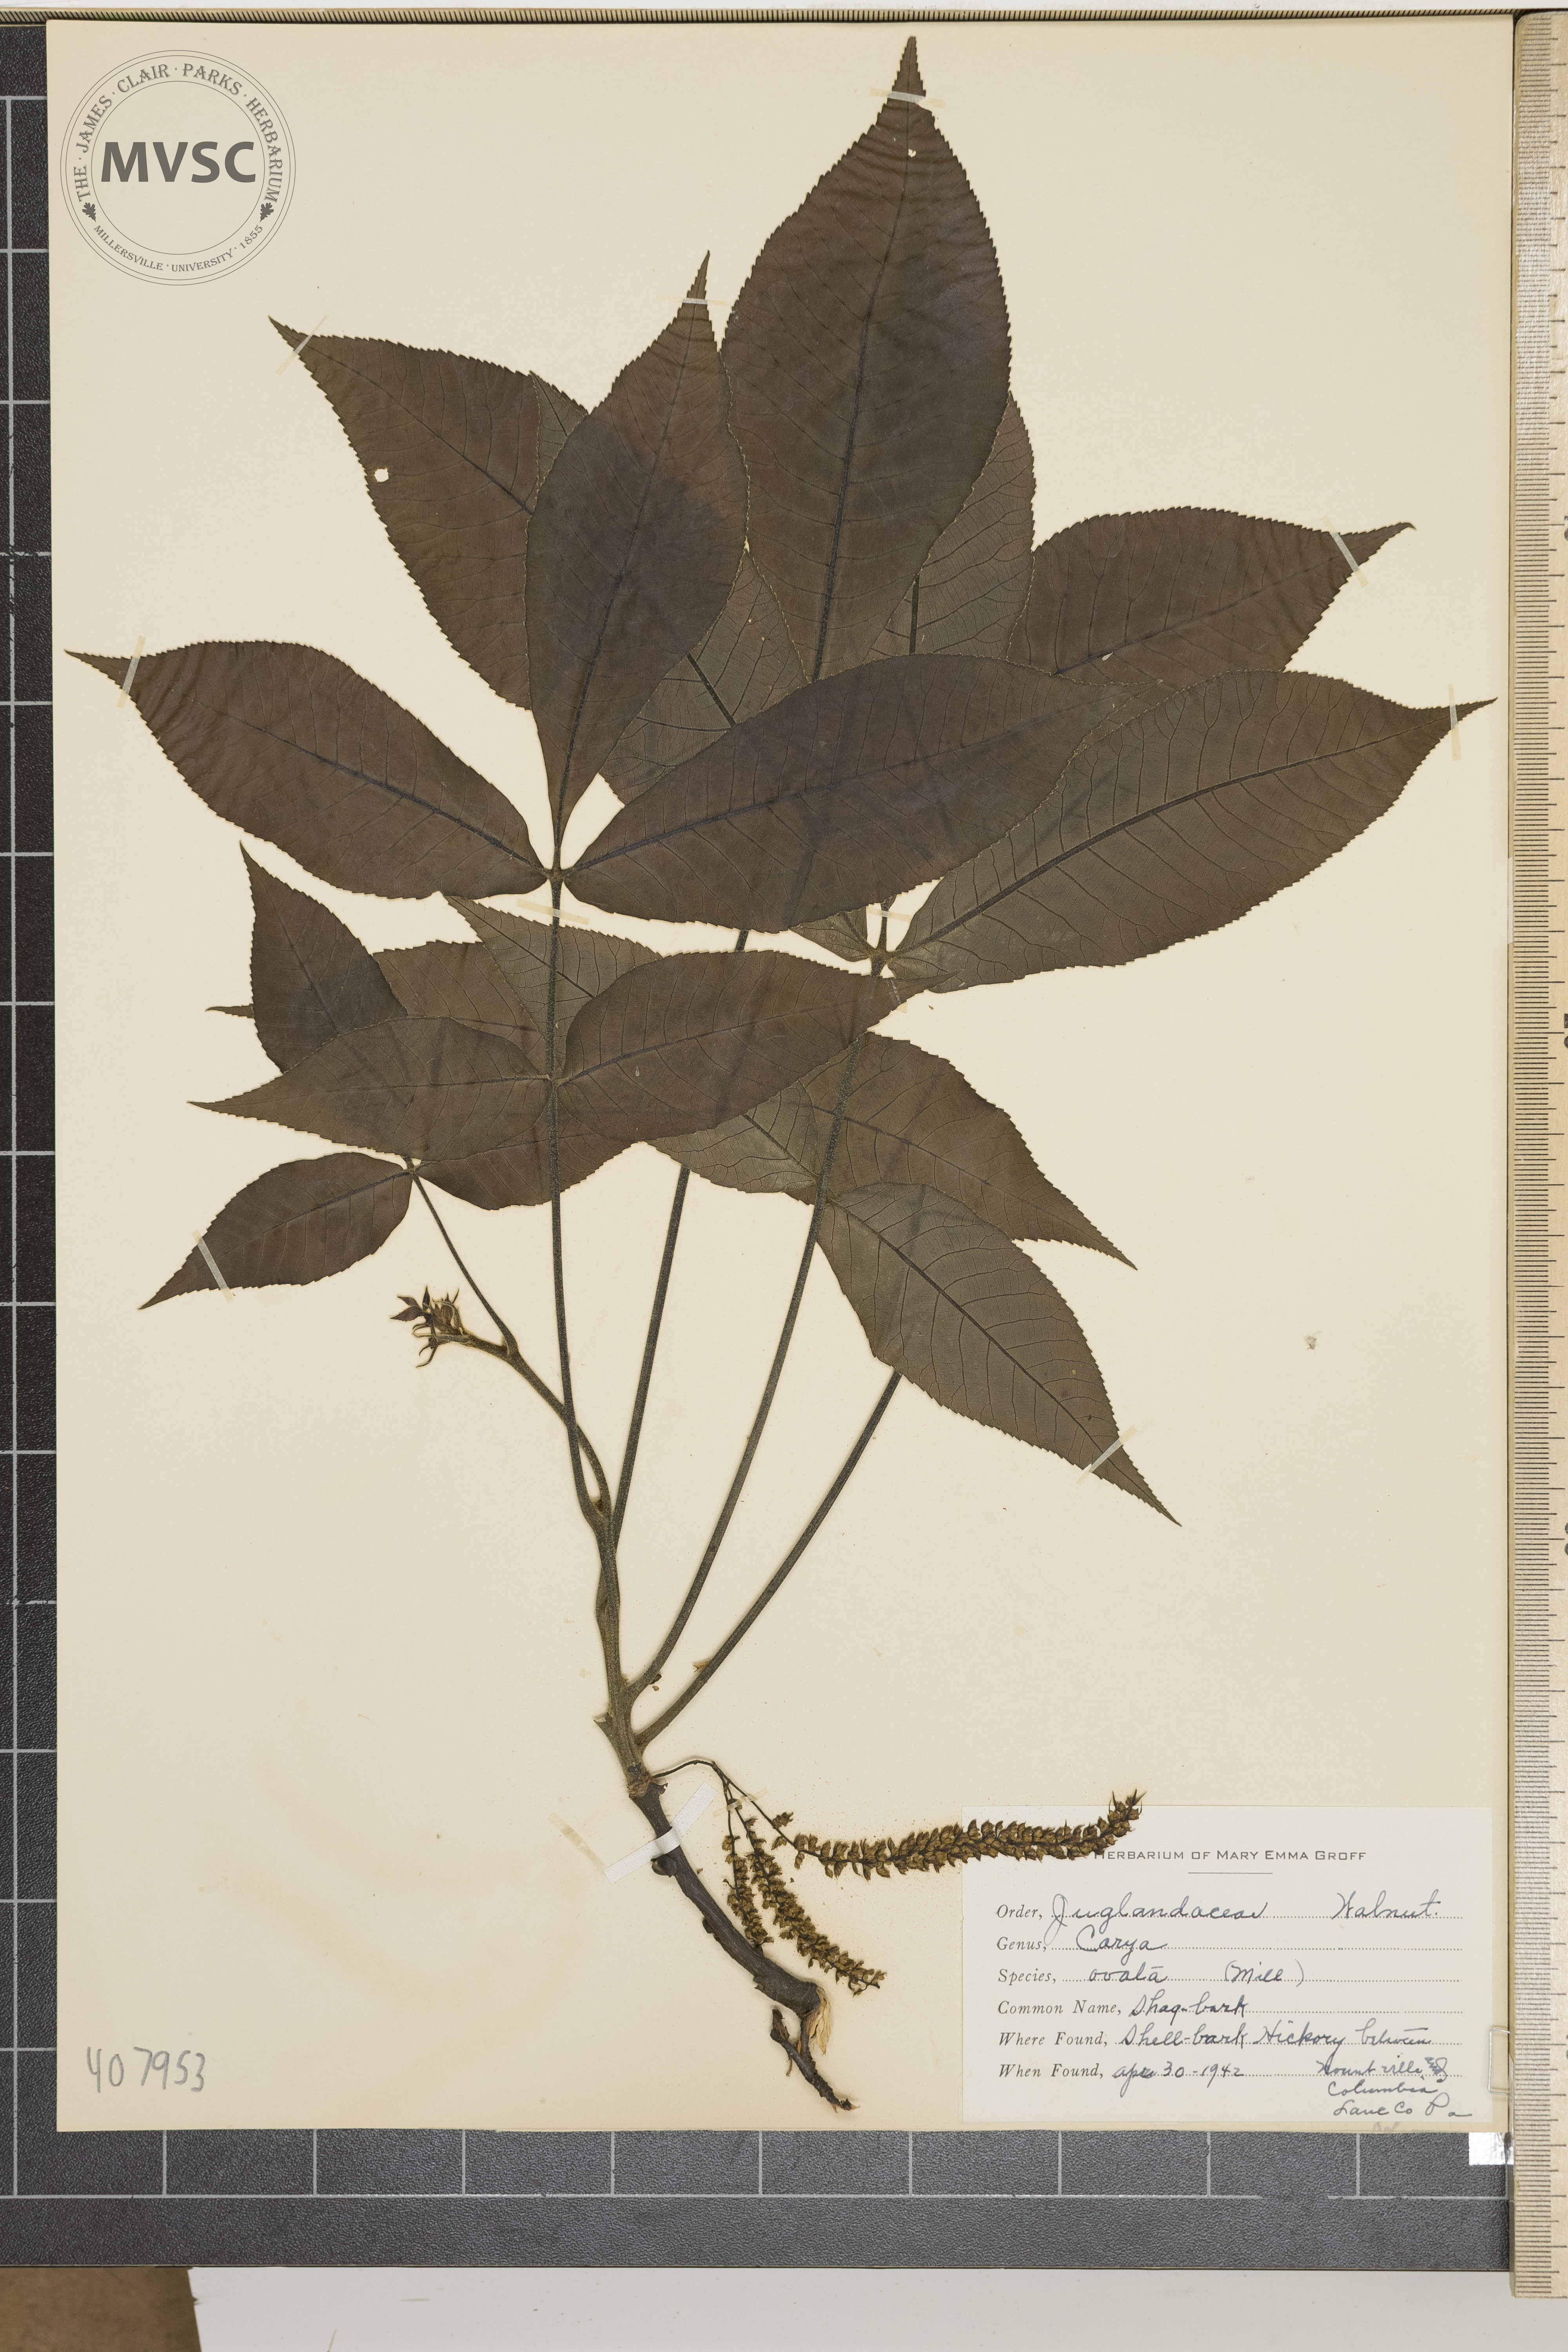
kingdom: Plantae
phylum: Tracheophyta
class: Magnoliopsida
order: Fagales
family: Juglandaceae
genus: Carya
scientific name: Carya ovata
